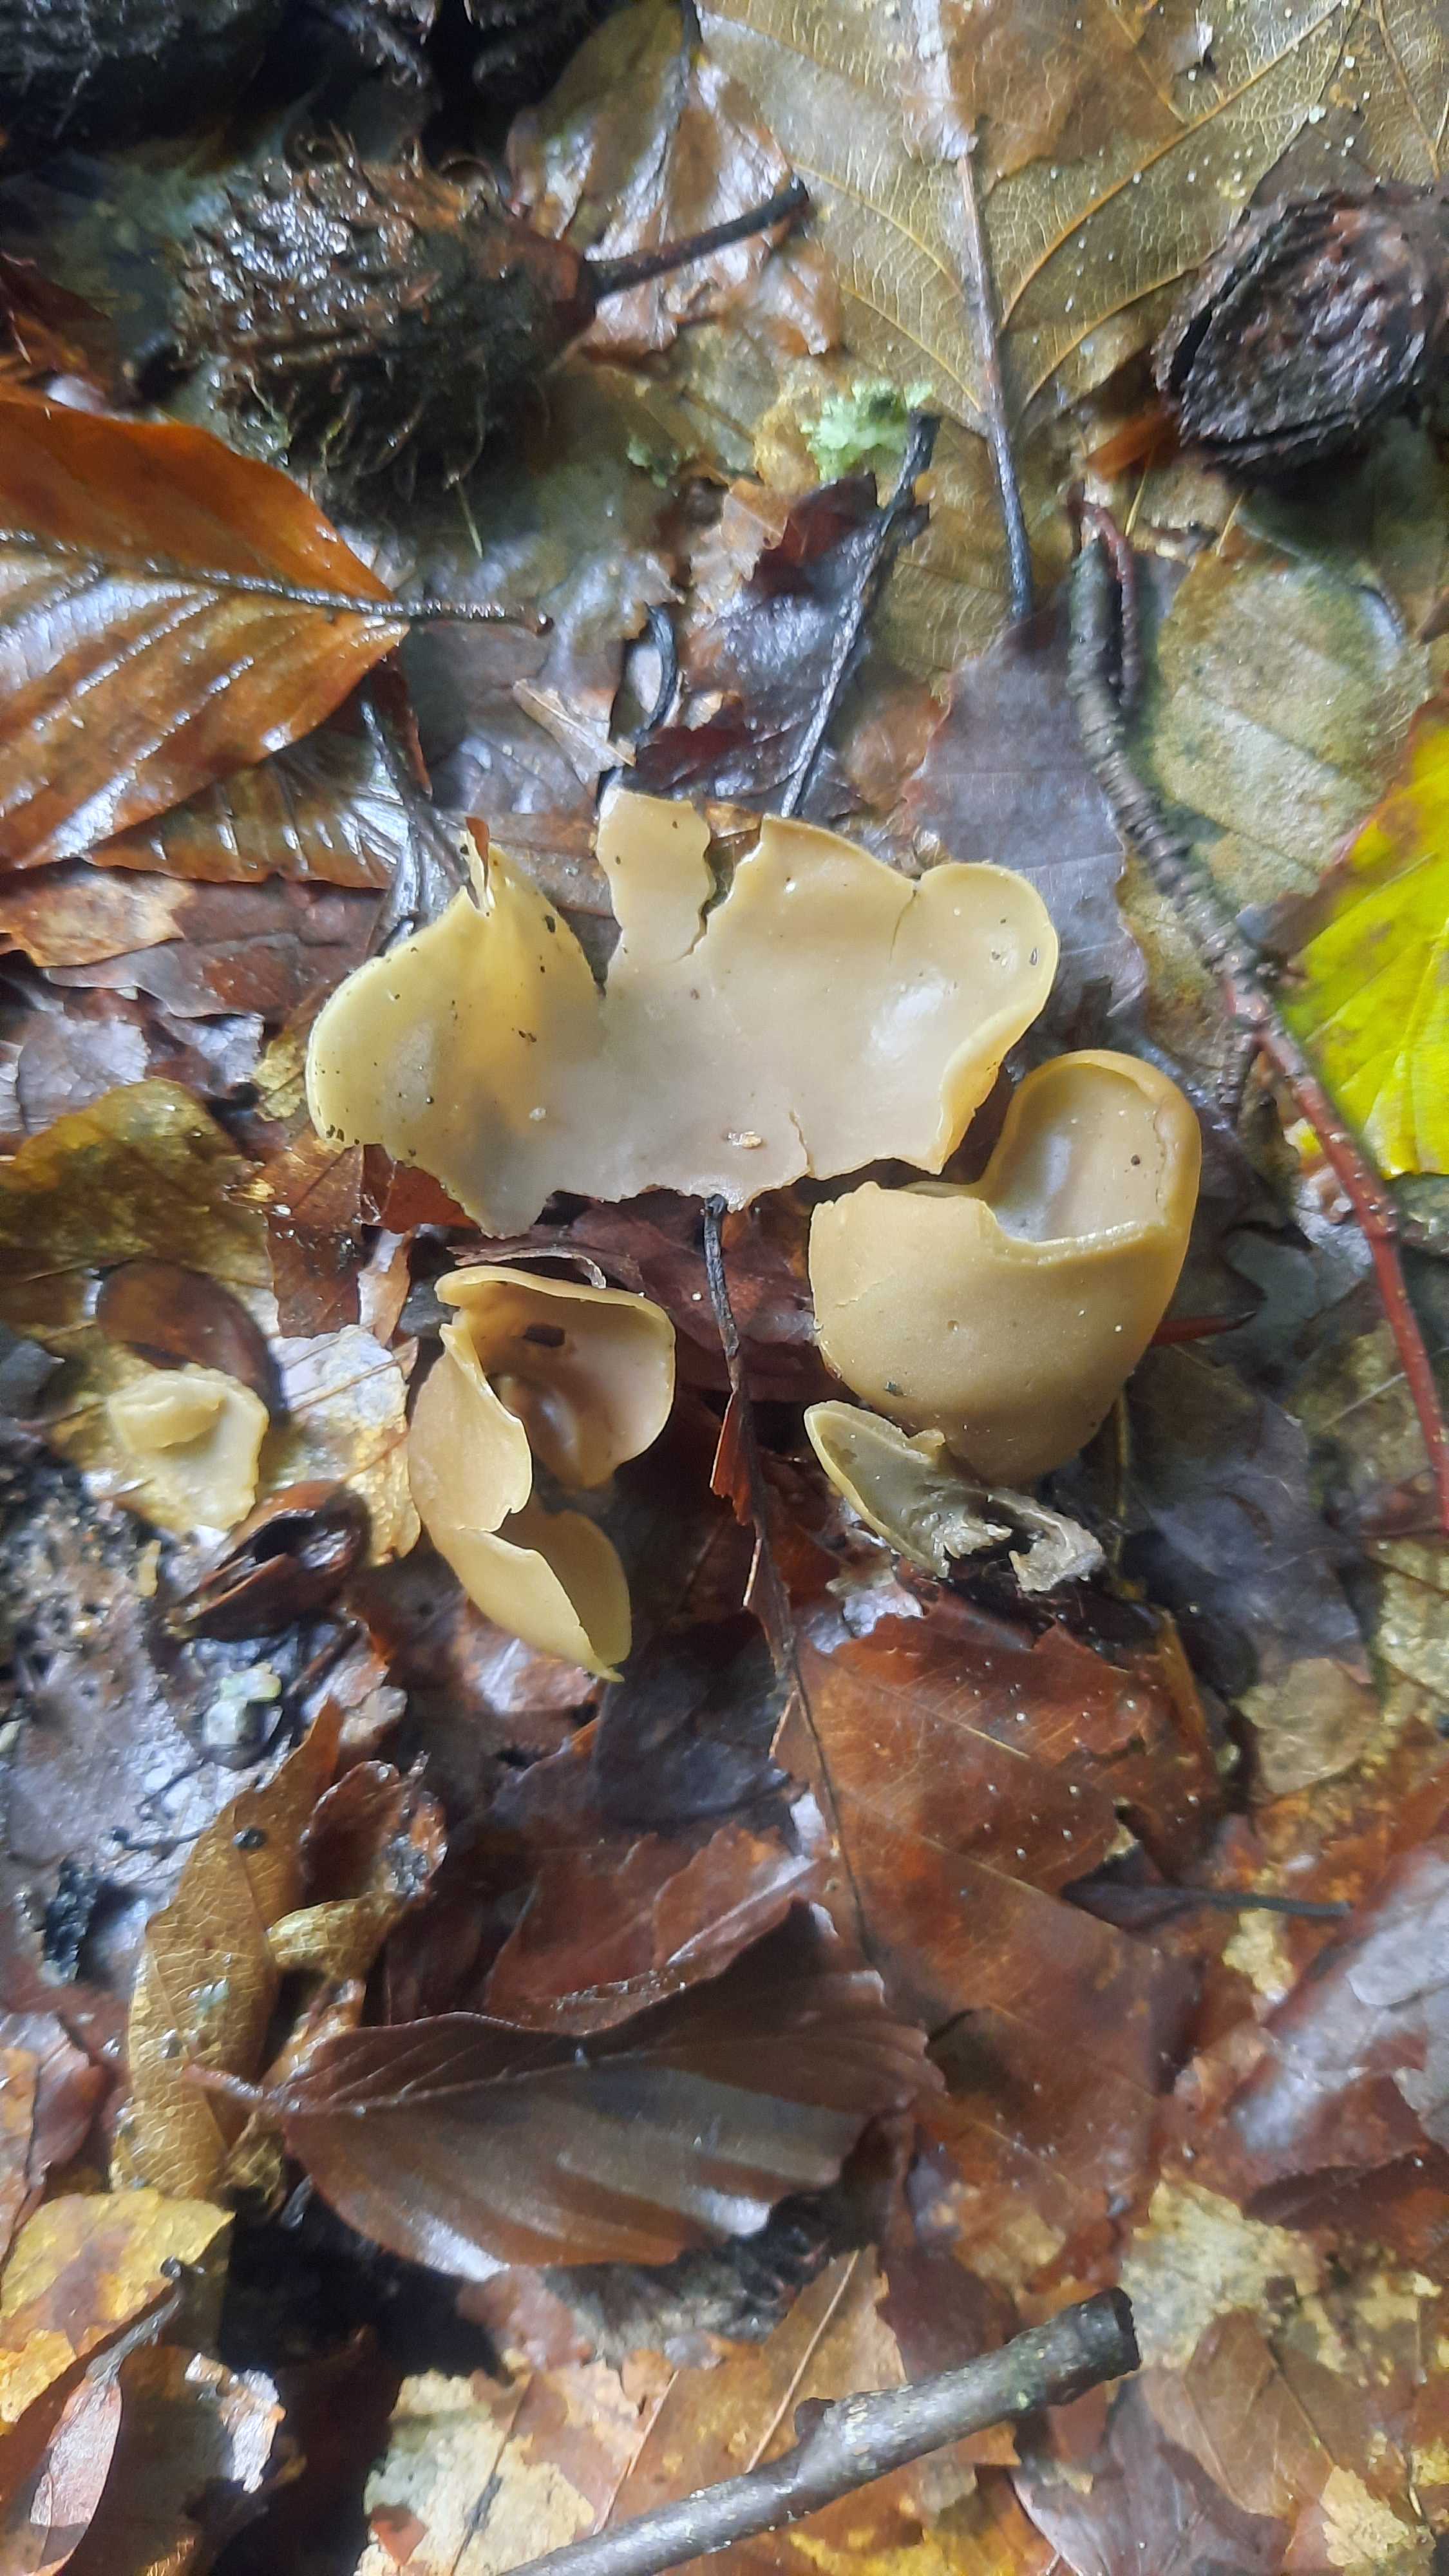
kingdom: Fungi
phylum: Ascomycota
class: Pezizomycetes
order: Pezizales
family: Otideaceae
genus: Otidea
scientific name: Otidea alutacea
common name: læder-ørebæger
